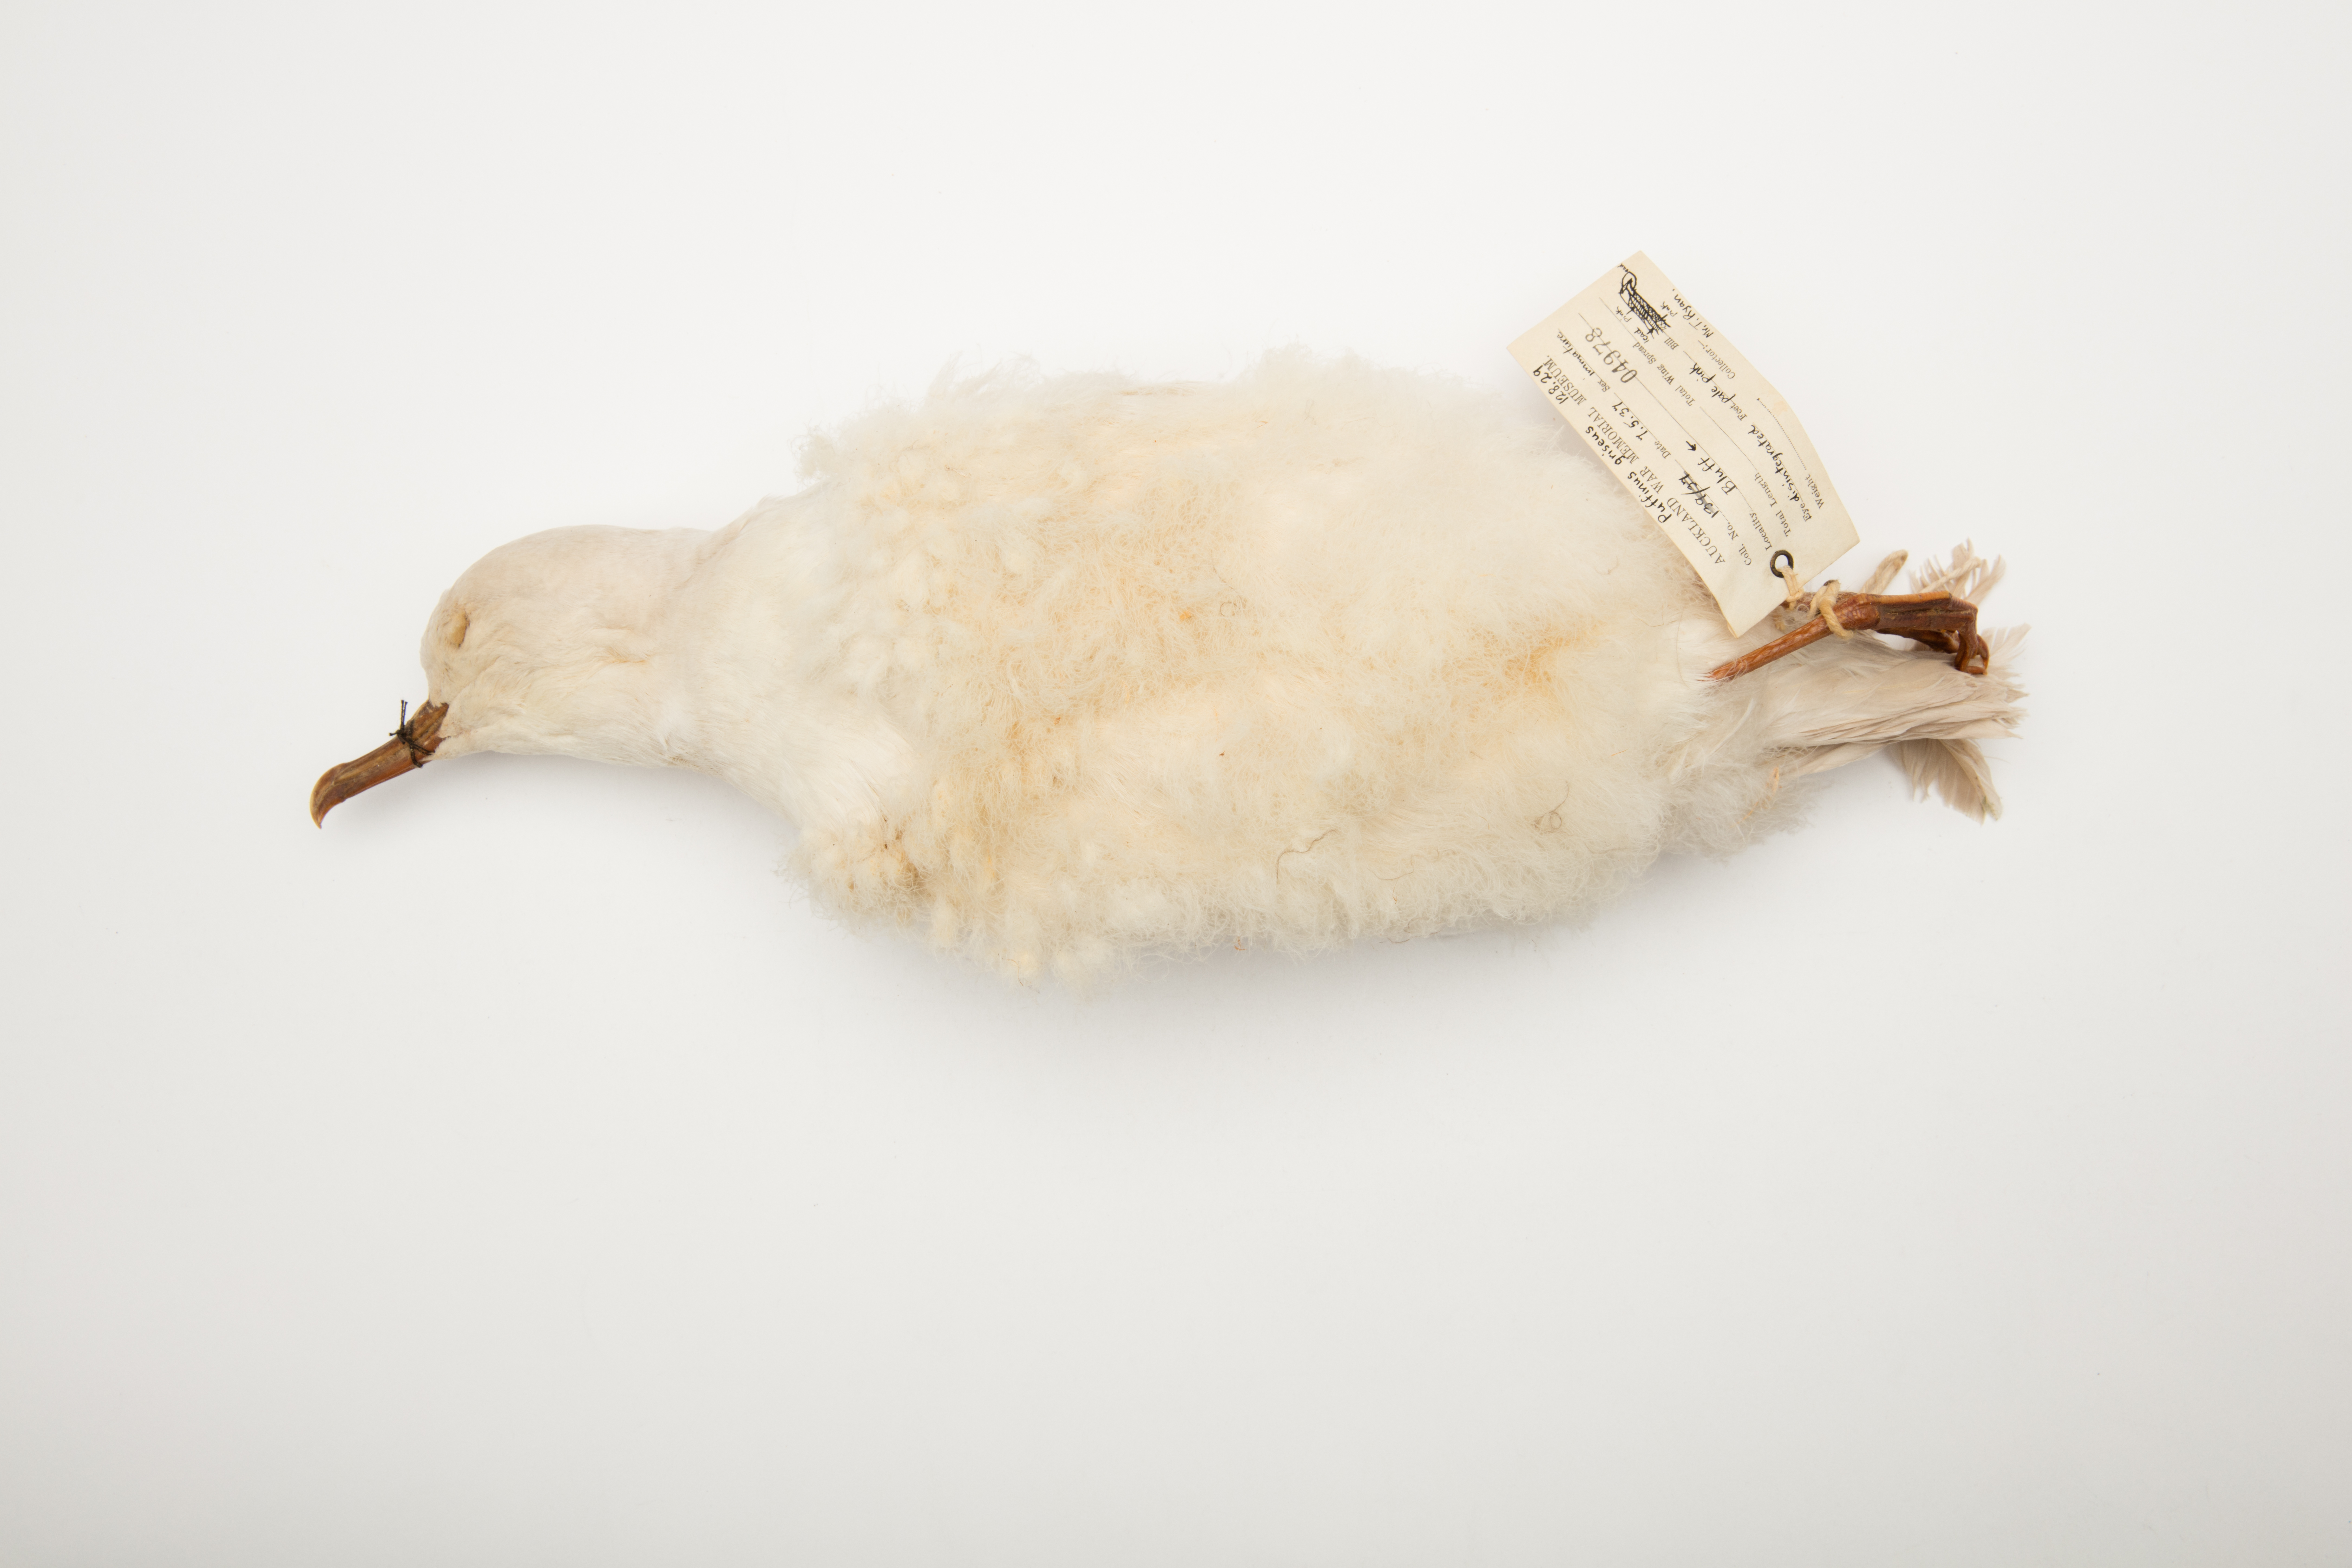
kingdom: Animalia
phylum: Chordata
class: Aves
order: Procellariiformes
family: Procellariidae
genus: Puffinus
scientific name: Puffinus griseus
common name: Sooty shearwater
